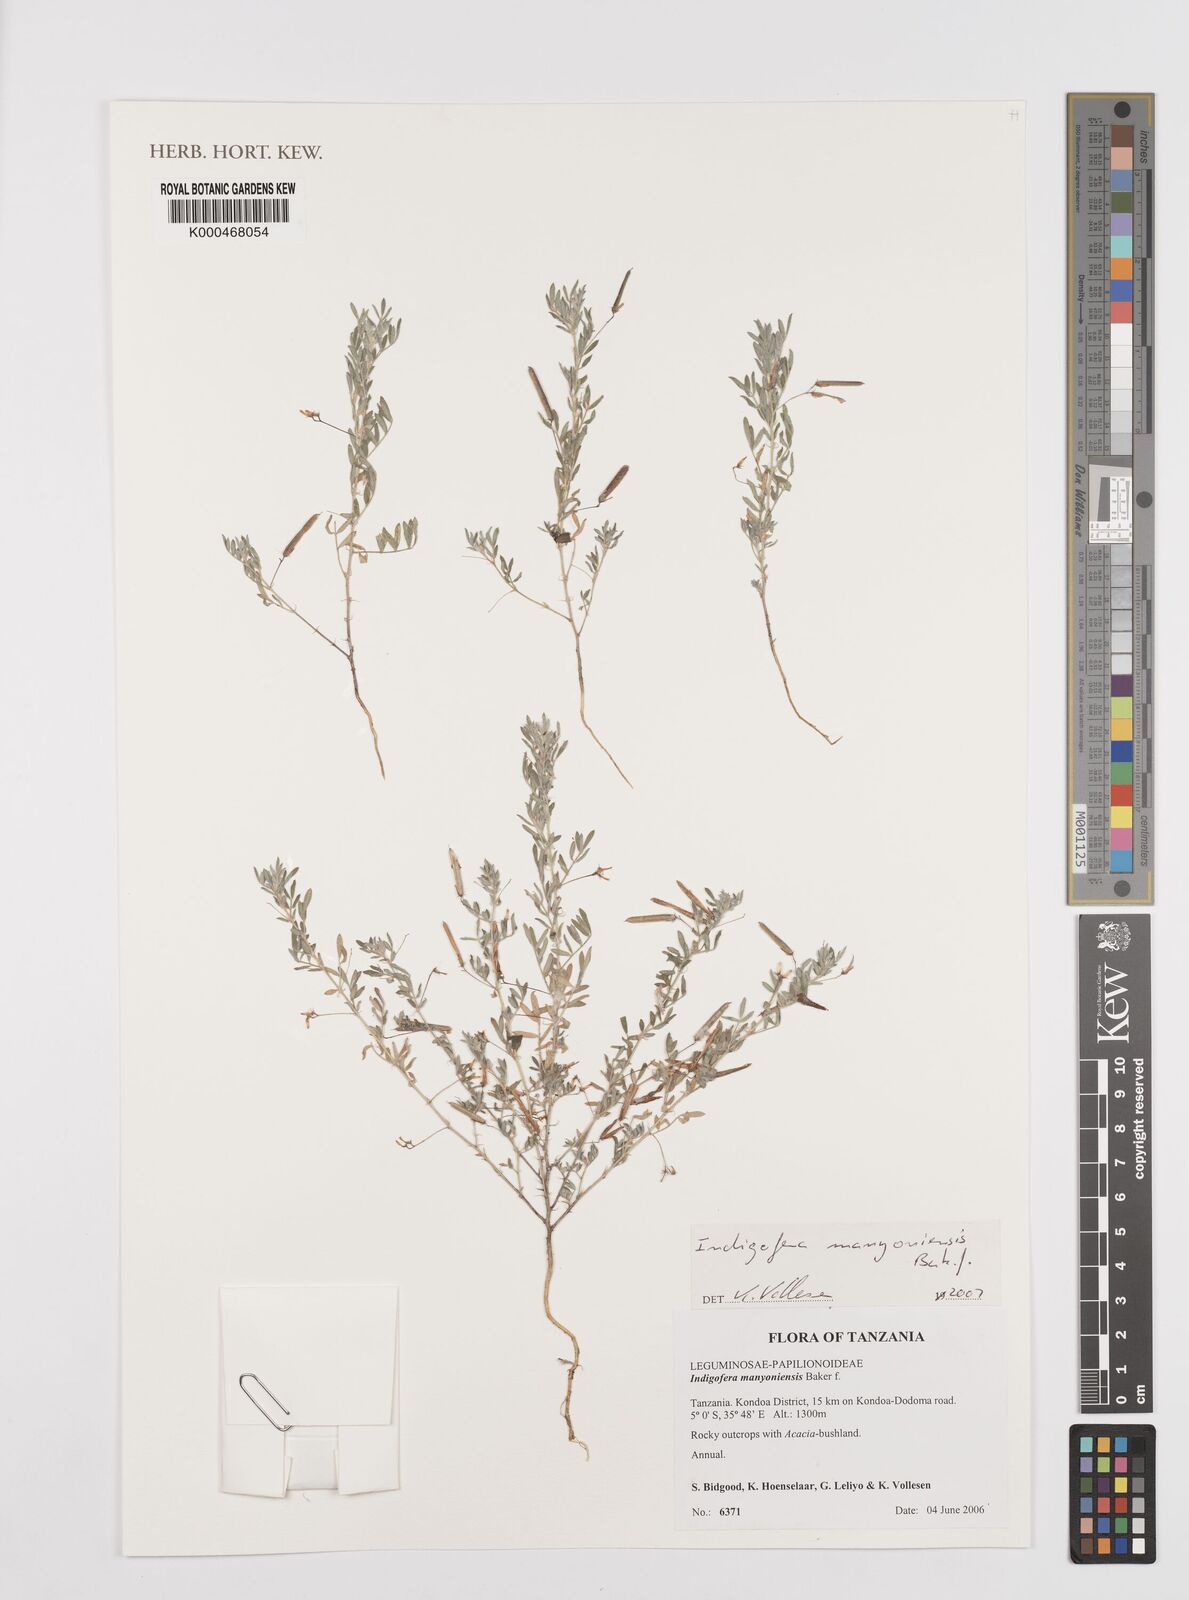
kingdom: Plantae
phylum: Tracheophyta
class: Magnoliopsida
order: Fabales
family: Fabaceae
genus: Indigofera
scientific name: Indigofera manyoniensis
